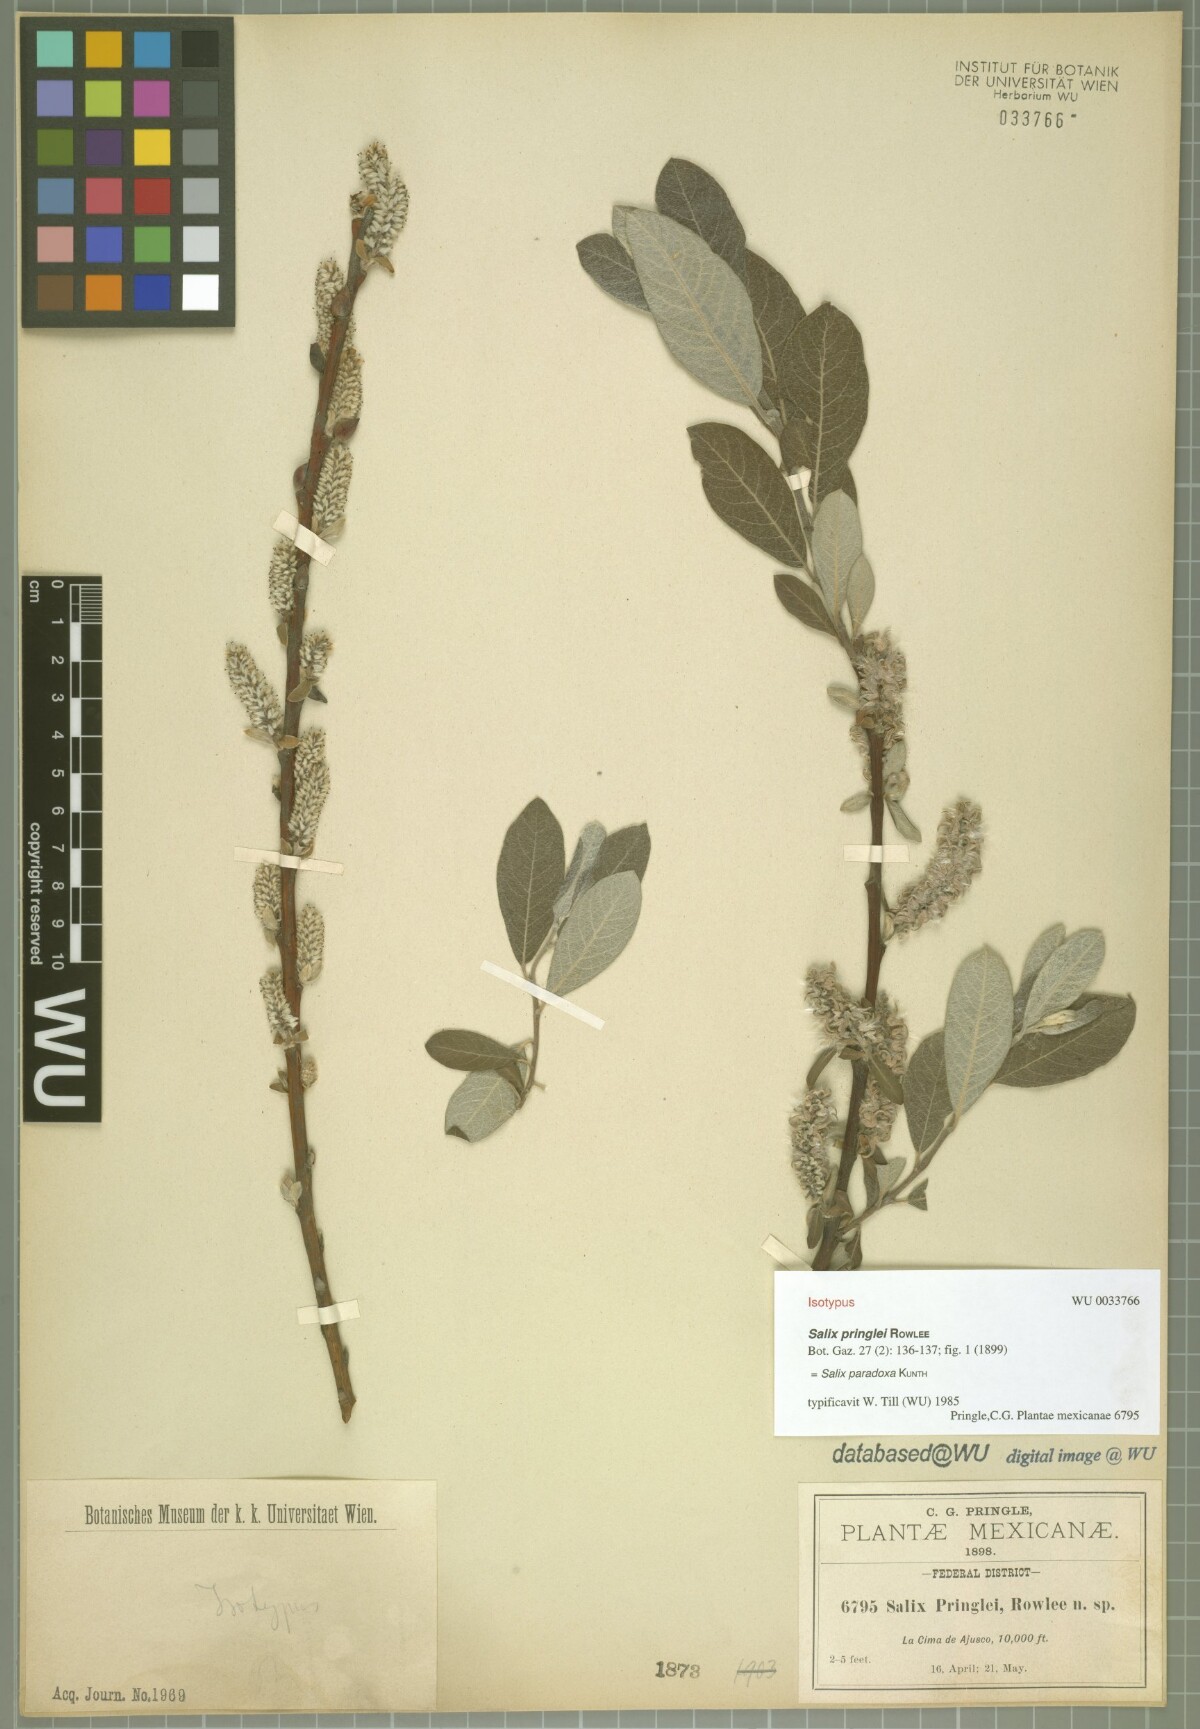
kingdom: Plantae
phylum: Tracheophyta
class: Magnoliopsida
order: Malpighiales
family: Salicaceae
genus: Salix
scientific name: Salix paradoxa
